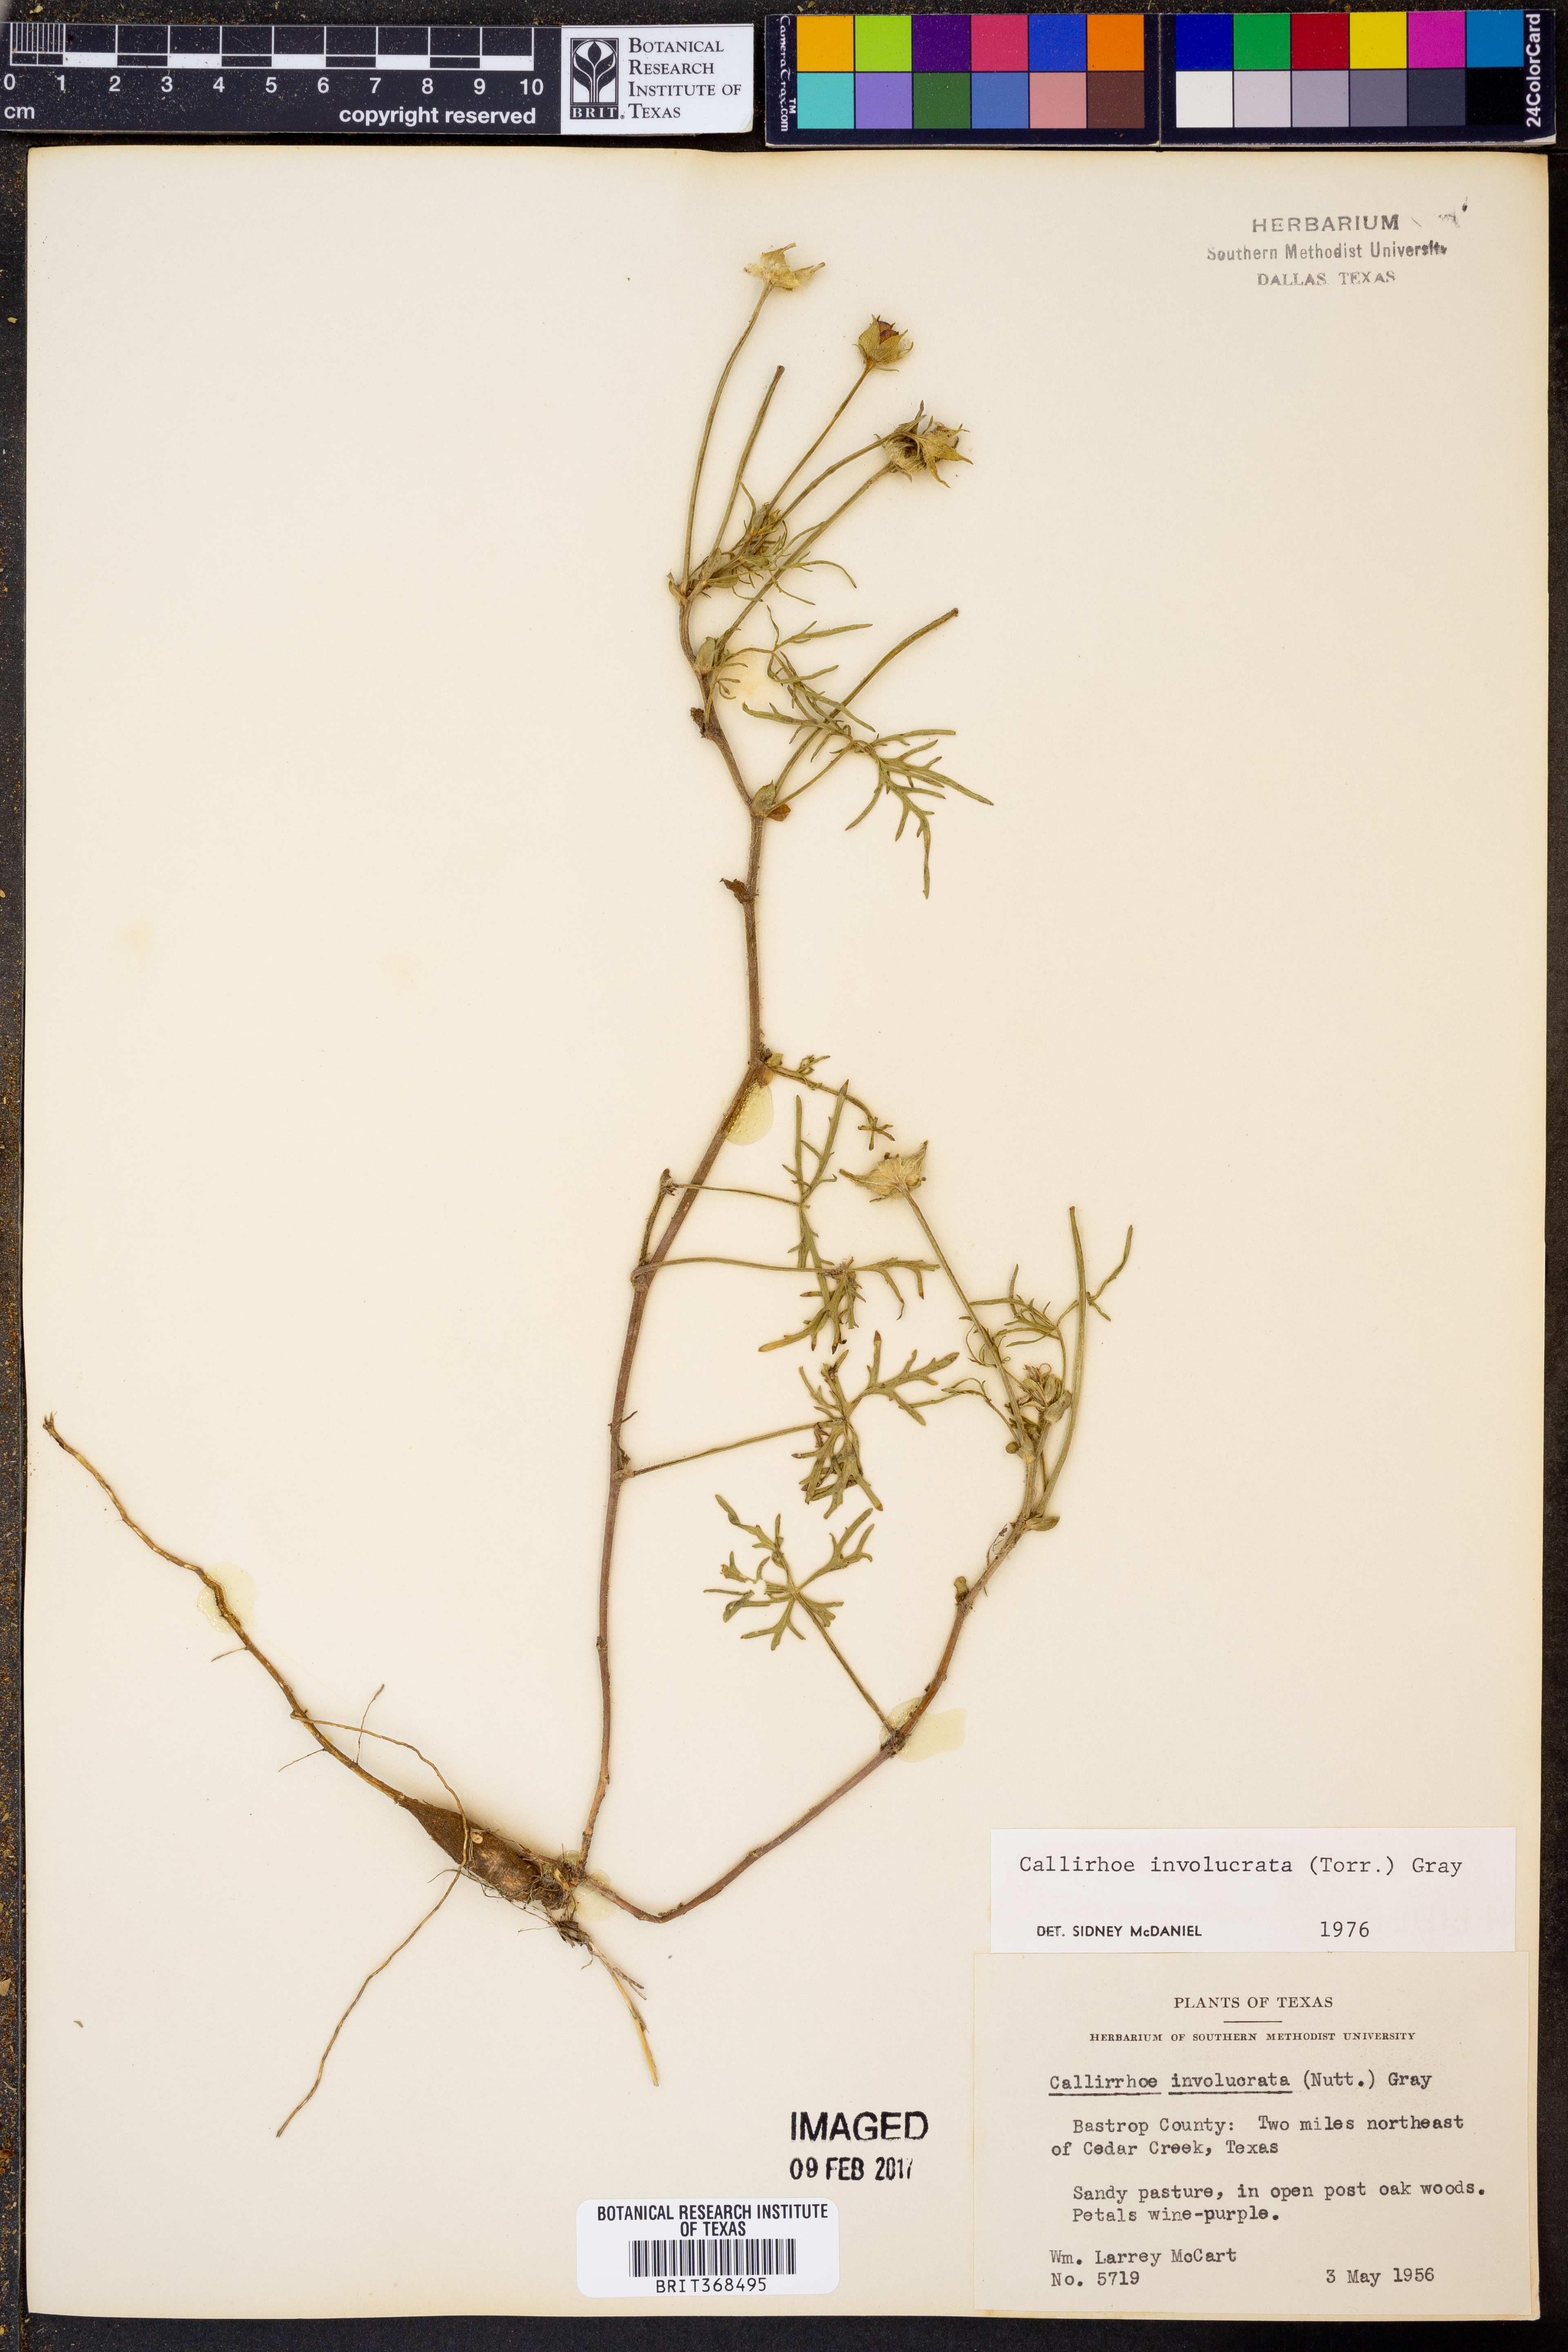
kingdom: Plantae
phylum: Tracheophyta
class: Magnoliopsida
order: Malvales
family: Malvaceae
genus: Callirhoe
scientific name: Callirhoe involucrata
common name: Purple poppy-mallow
